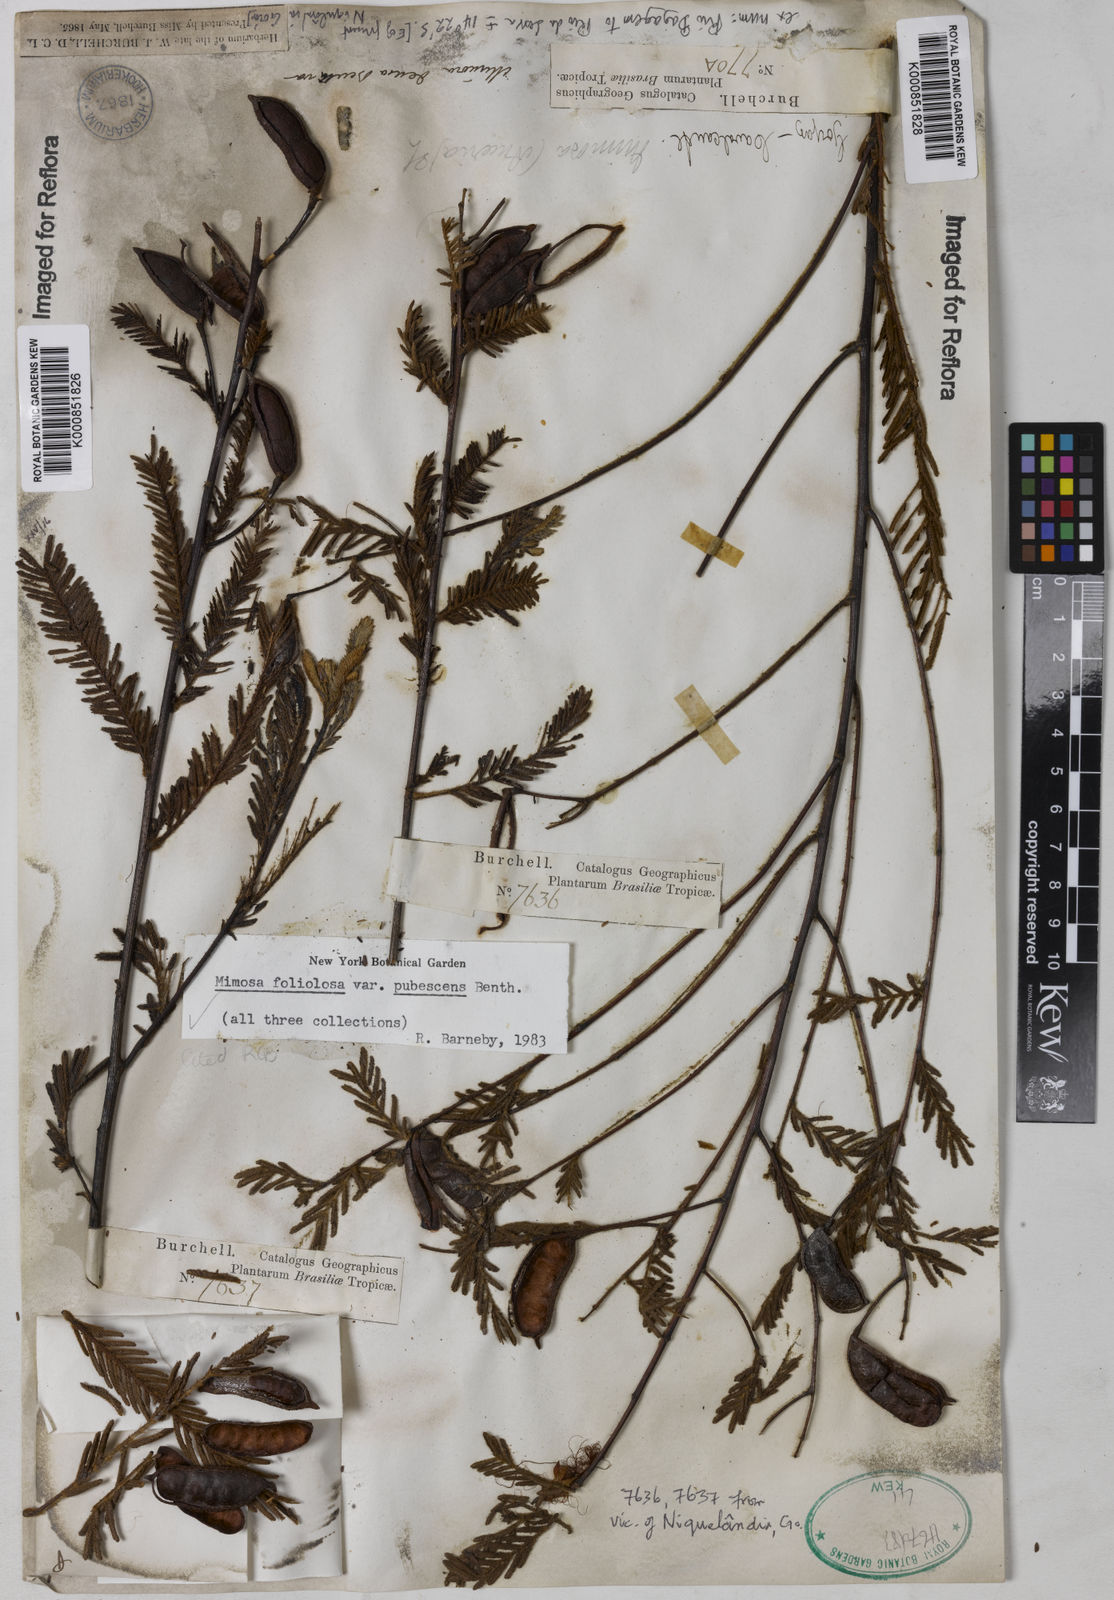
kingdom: Plantae
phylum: Tracheophyta
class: Magnoliopsida
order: Fabales
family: Fabaceae
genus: Mimosa
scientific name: Mimosa foliolosa
